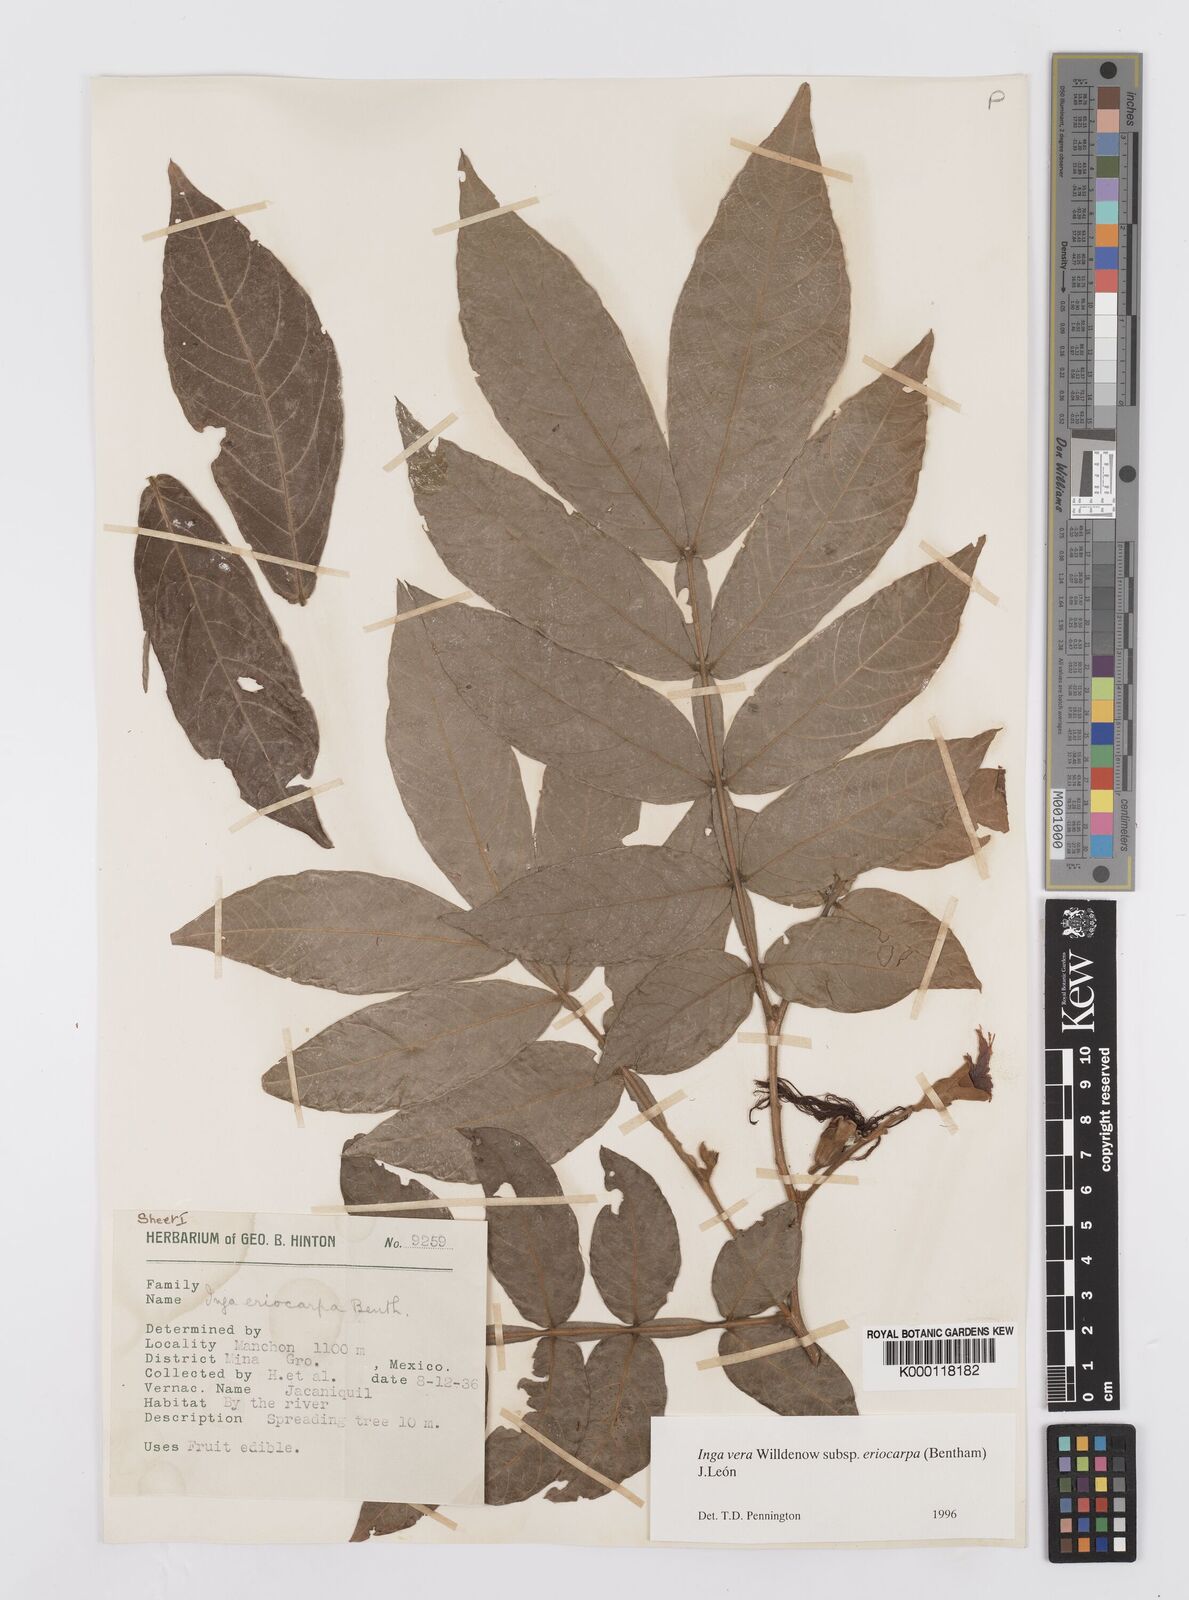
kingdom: Plantae
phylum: Tracheophyta
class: Magnoliopsida
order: Fabales
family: Fabaceae
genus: Inga
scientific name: Inga vera
